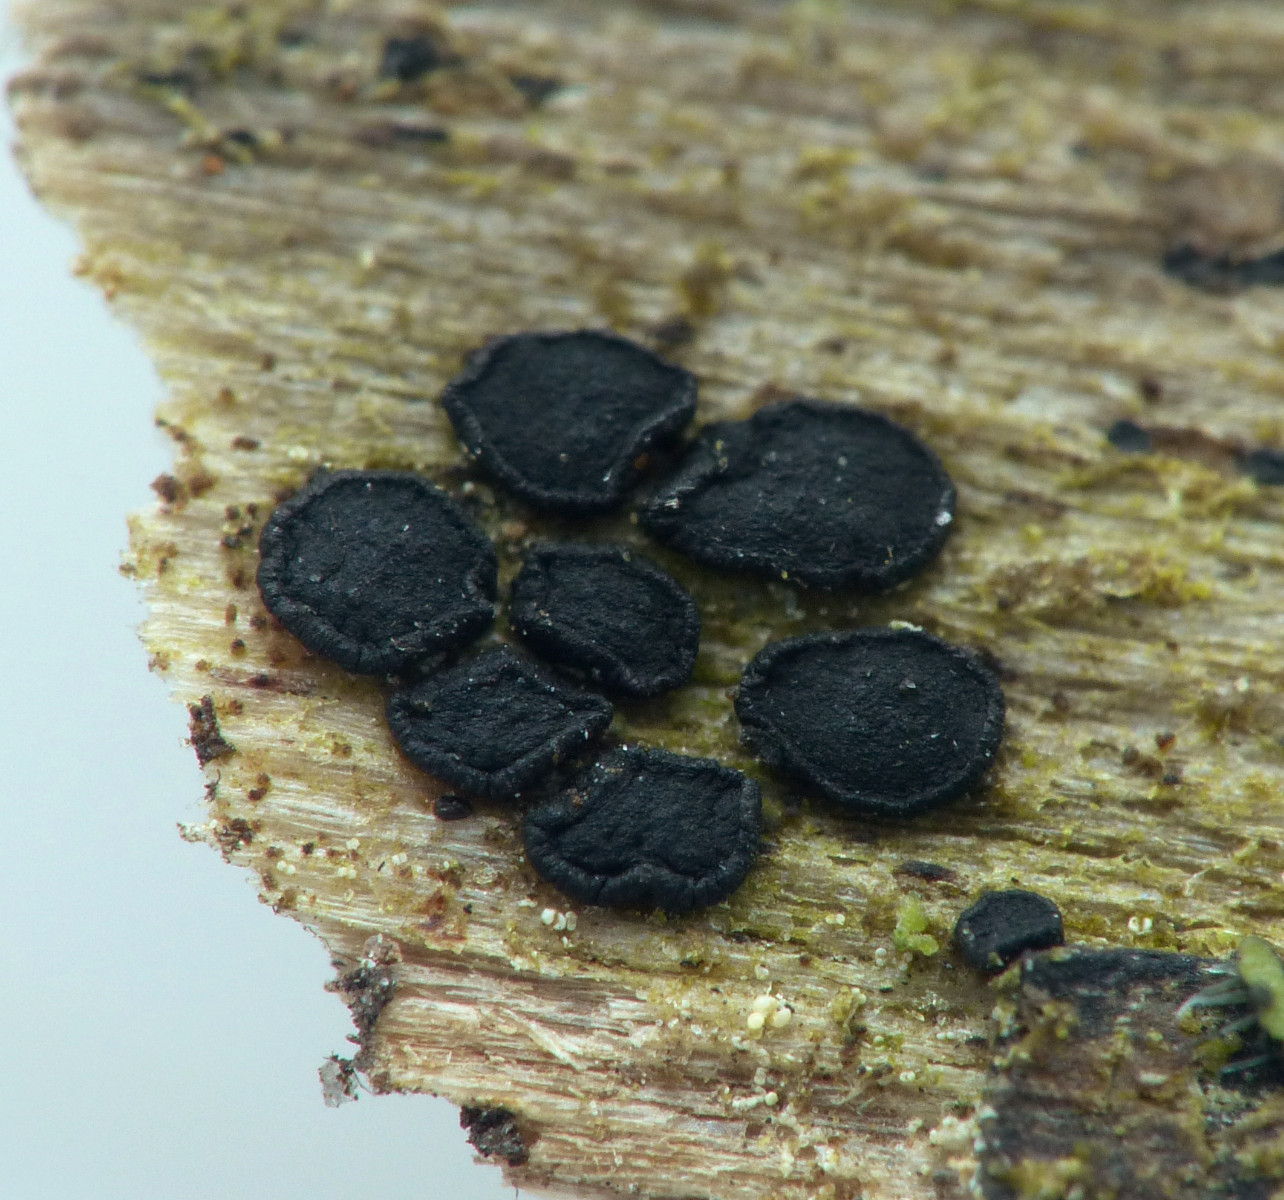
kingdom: Fungi
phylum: Ascomycota
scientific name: Ascomycota
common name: sæksvampe
